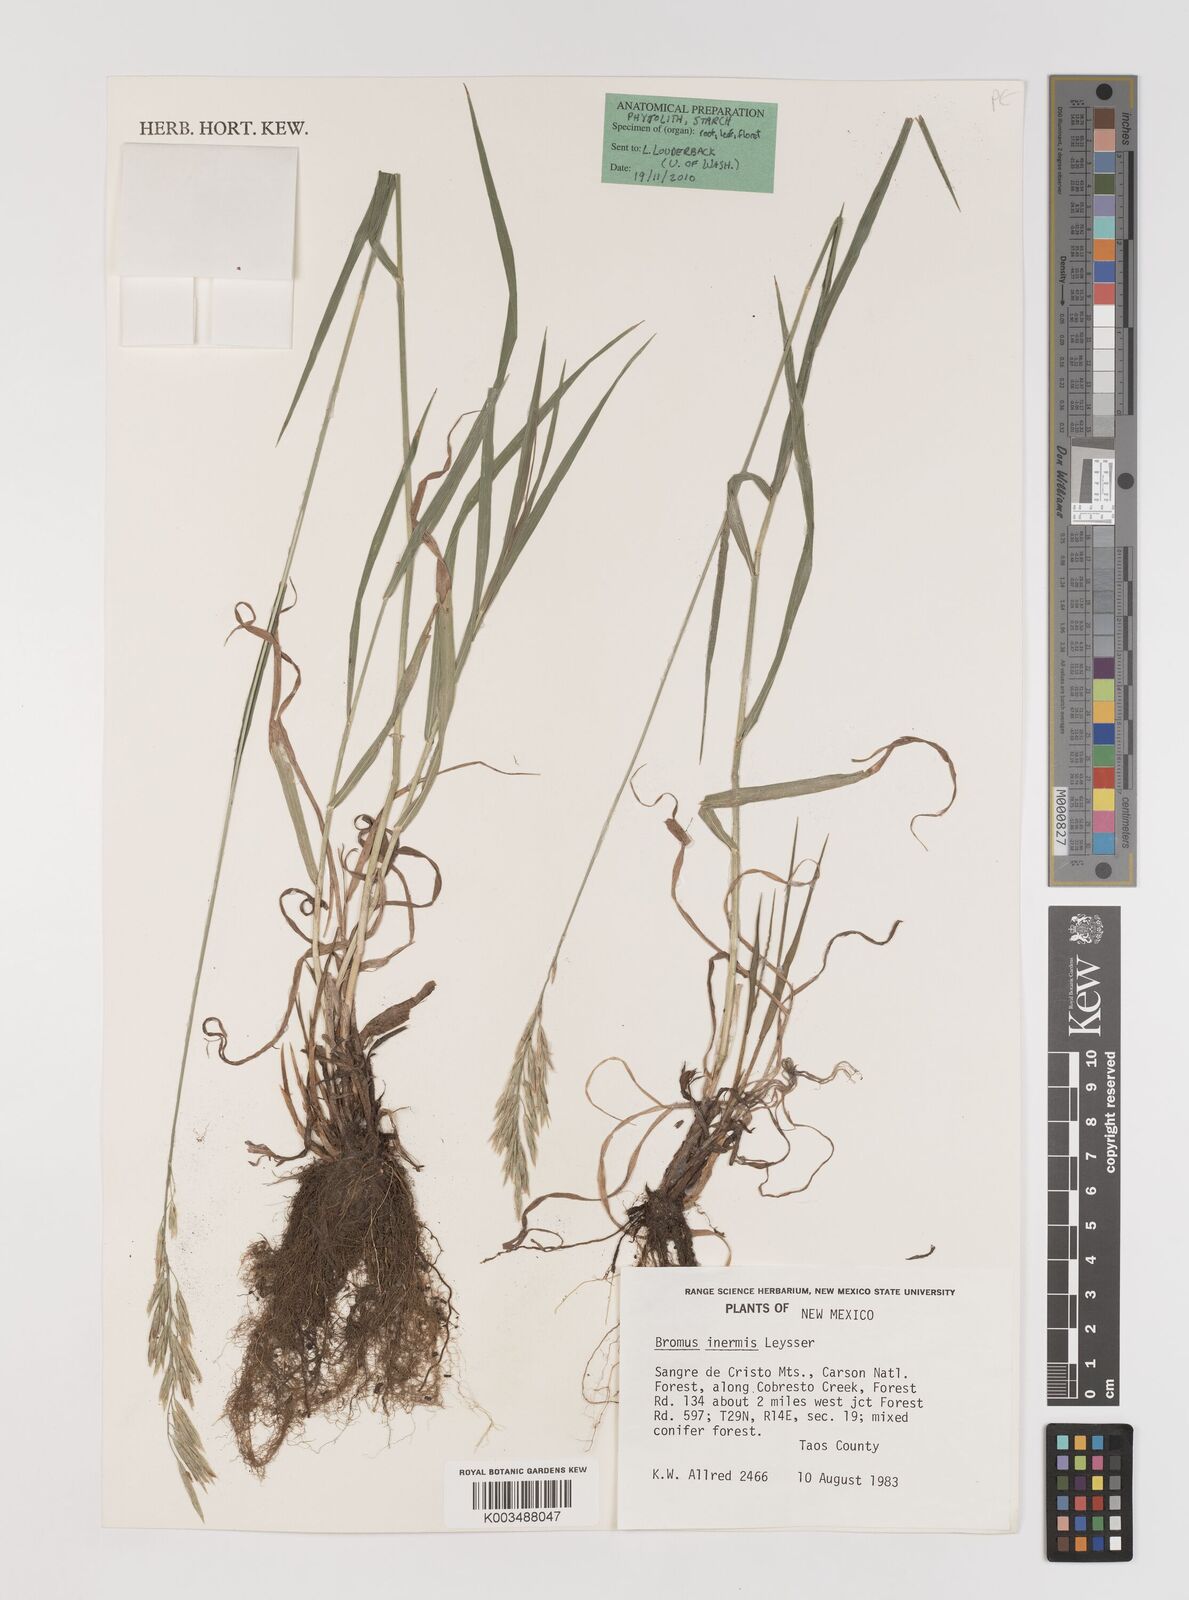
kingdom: Plantae
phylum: Tracheophyta
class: Liliopsida
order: Poales
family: Poaceae
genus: Bromus
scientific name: Bromus inermis
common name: Smooth brome
